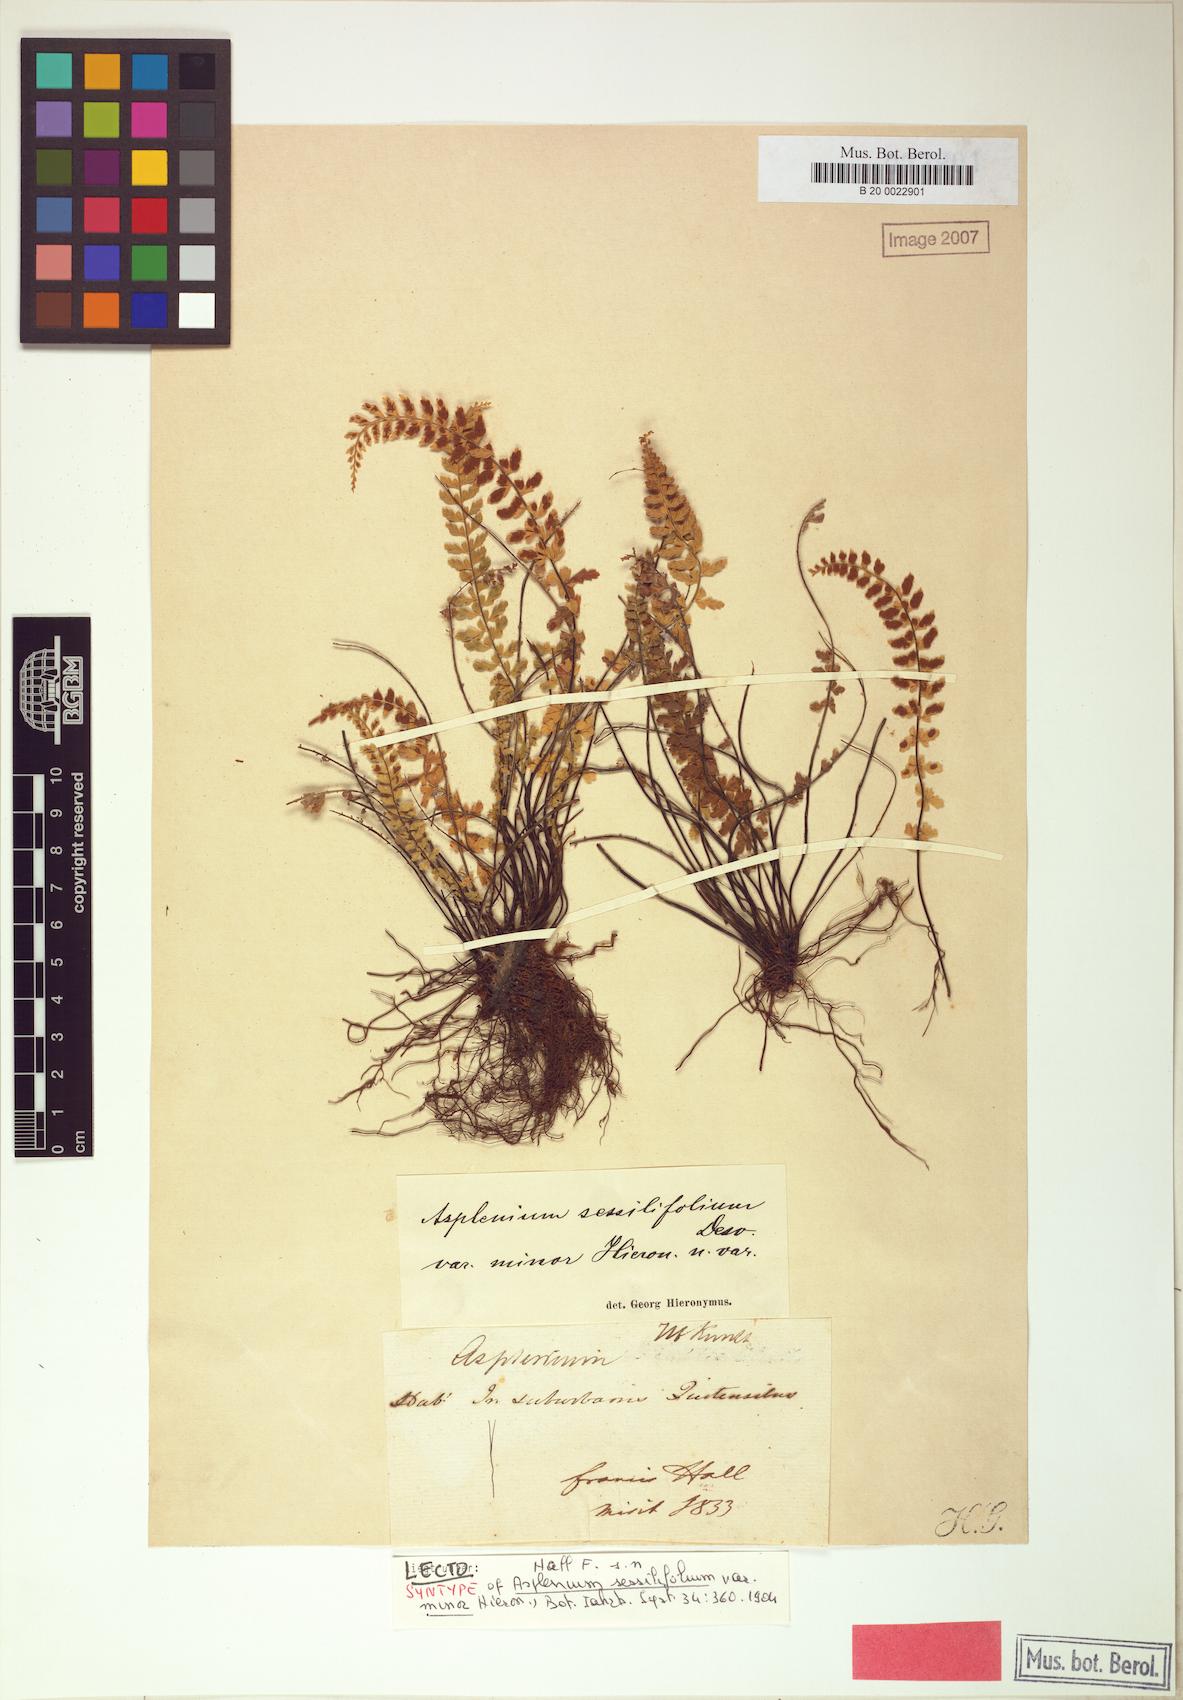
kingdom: Plantae
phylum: Tracheophyta
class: Polypodiopsida
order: Polypodiales
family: Aspleniaceae
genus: Asplenium
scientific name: Asplenium sessilifolium
